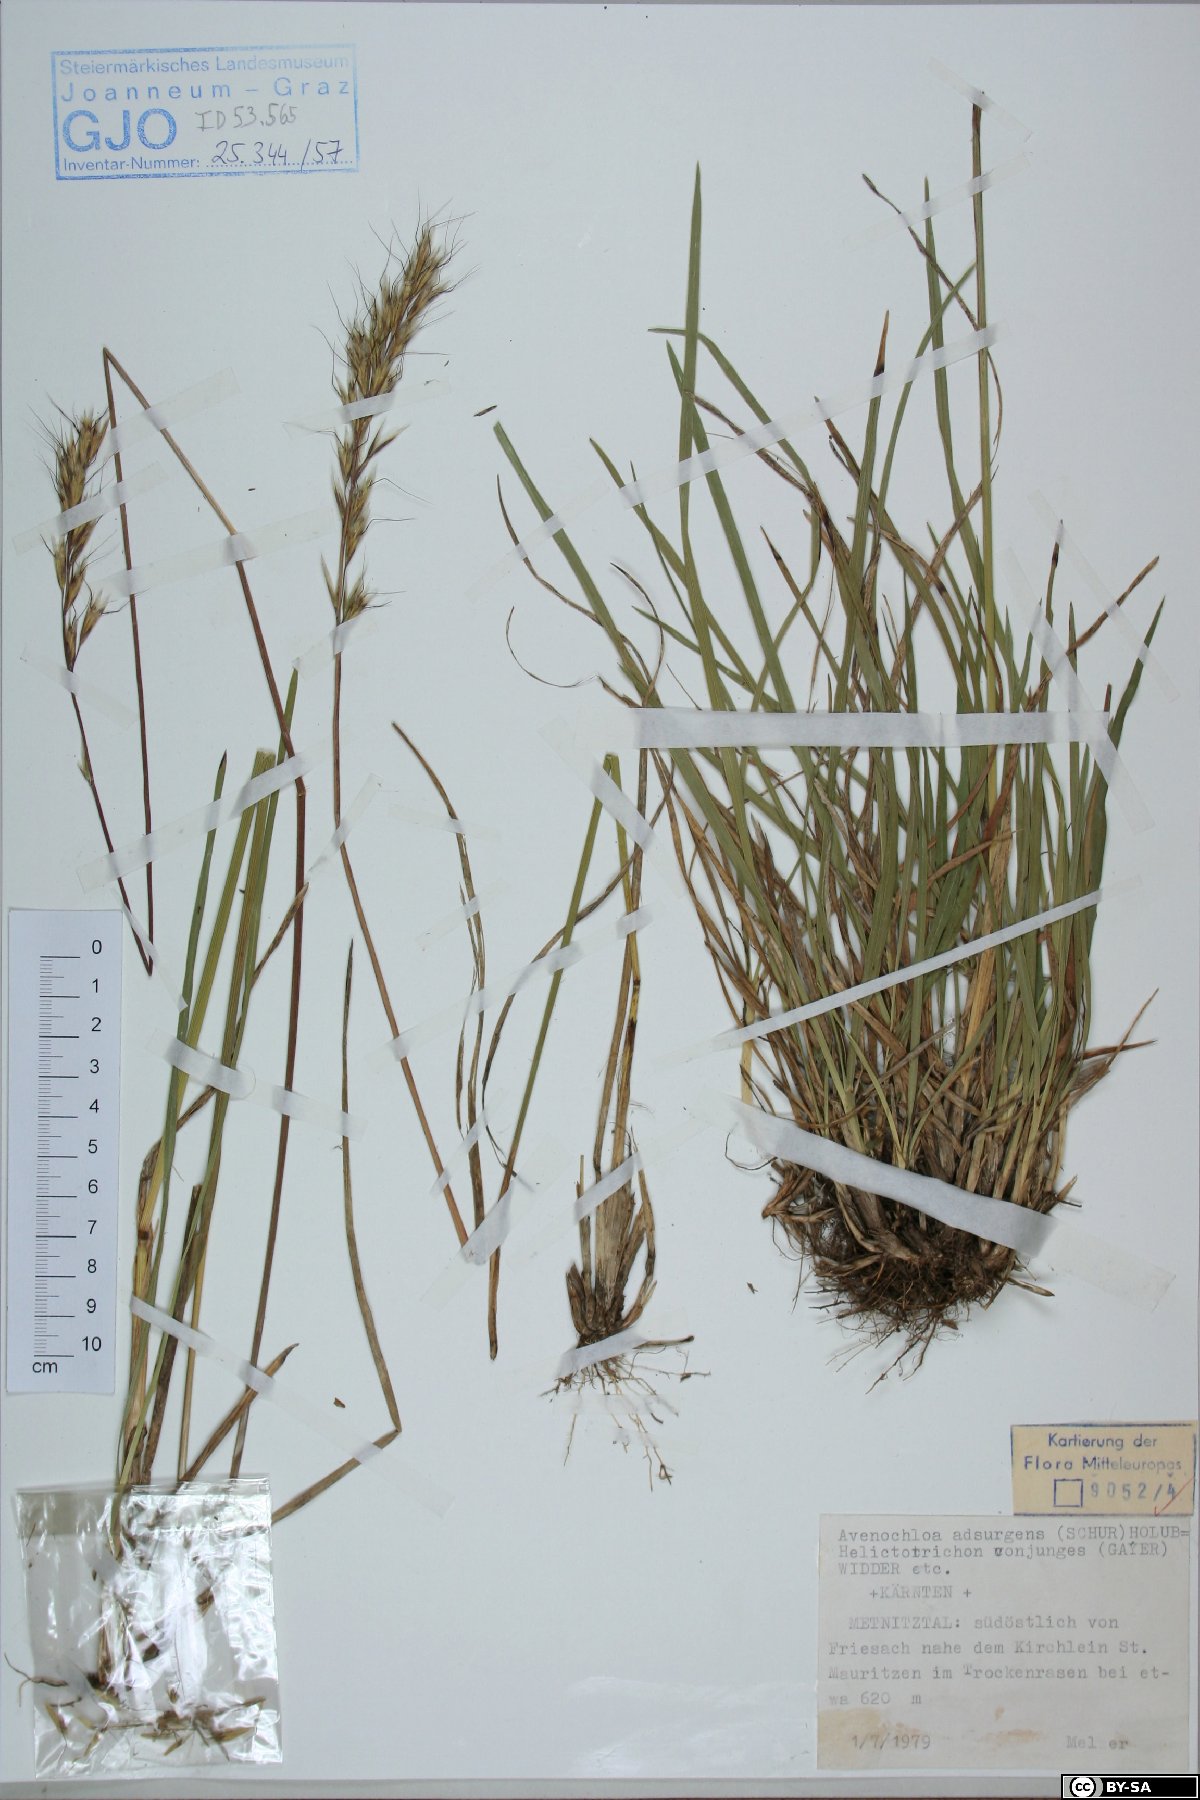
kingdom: Plantae
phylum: Tracheophyta
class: Liliopsida
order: Poales
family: Poaceae
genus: Helictochloa
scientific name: Helictochloa praeusta
